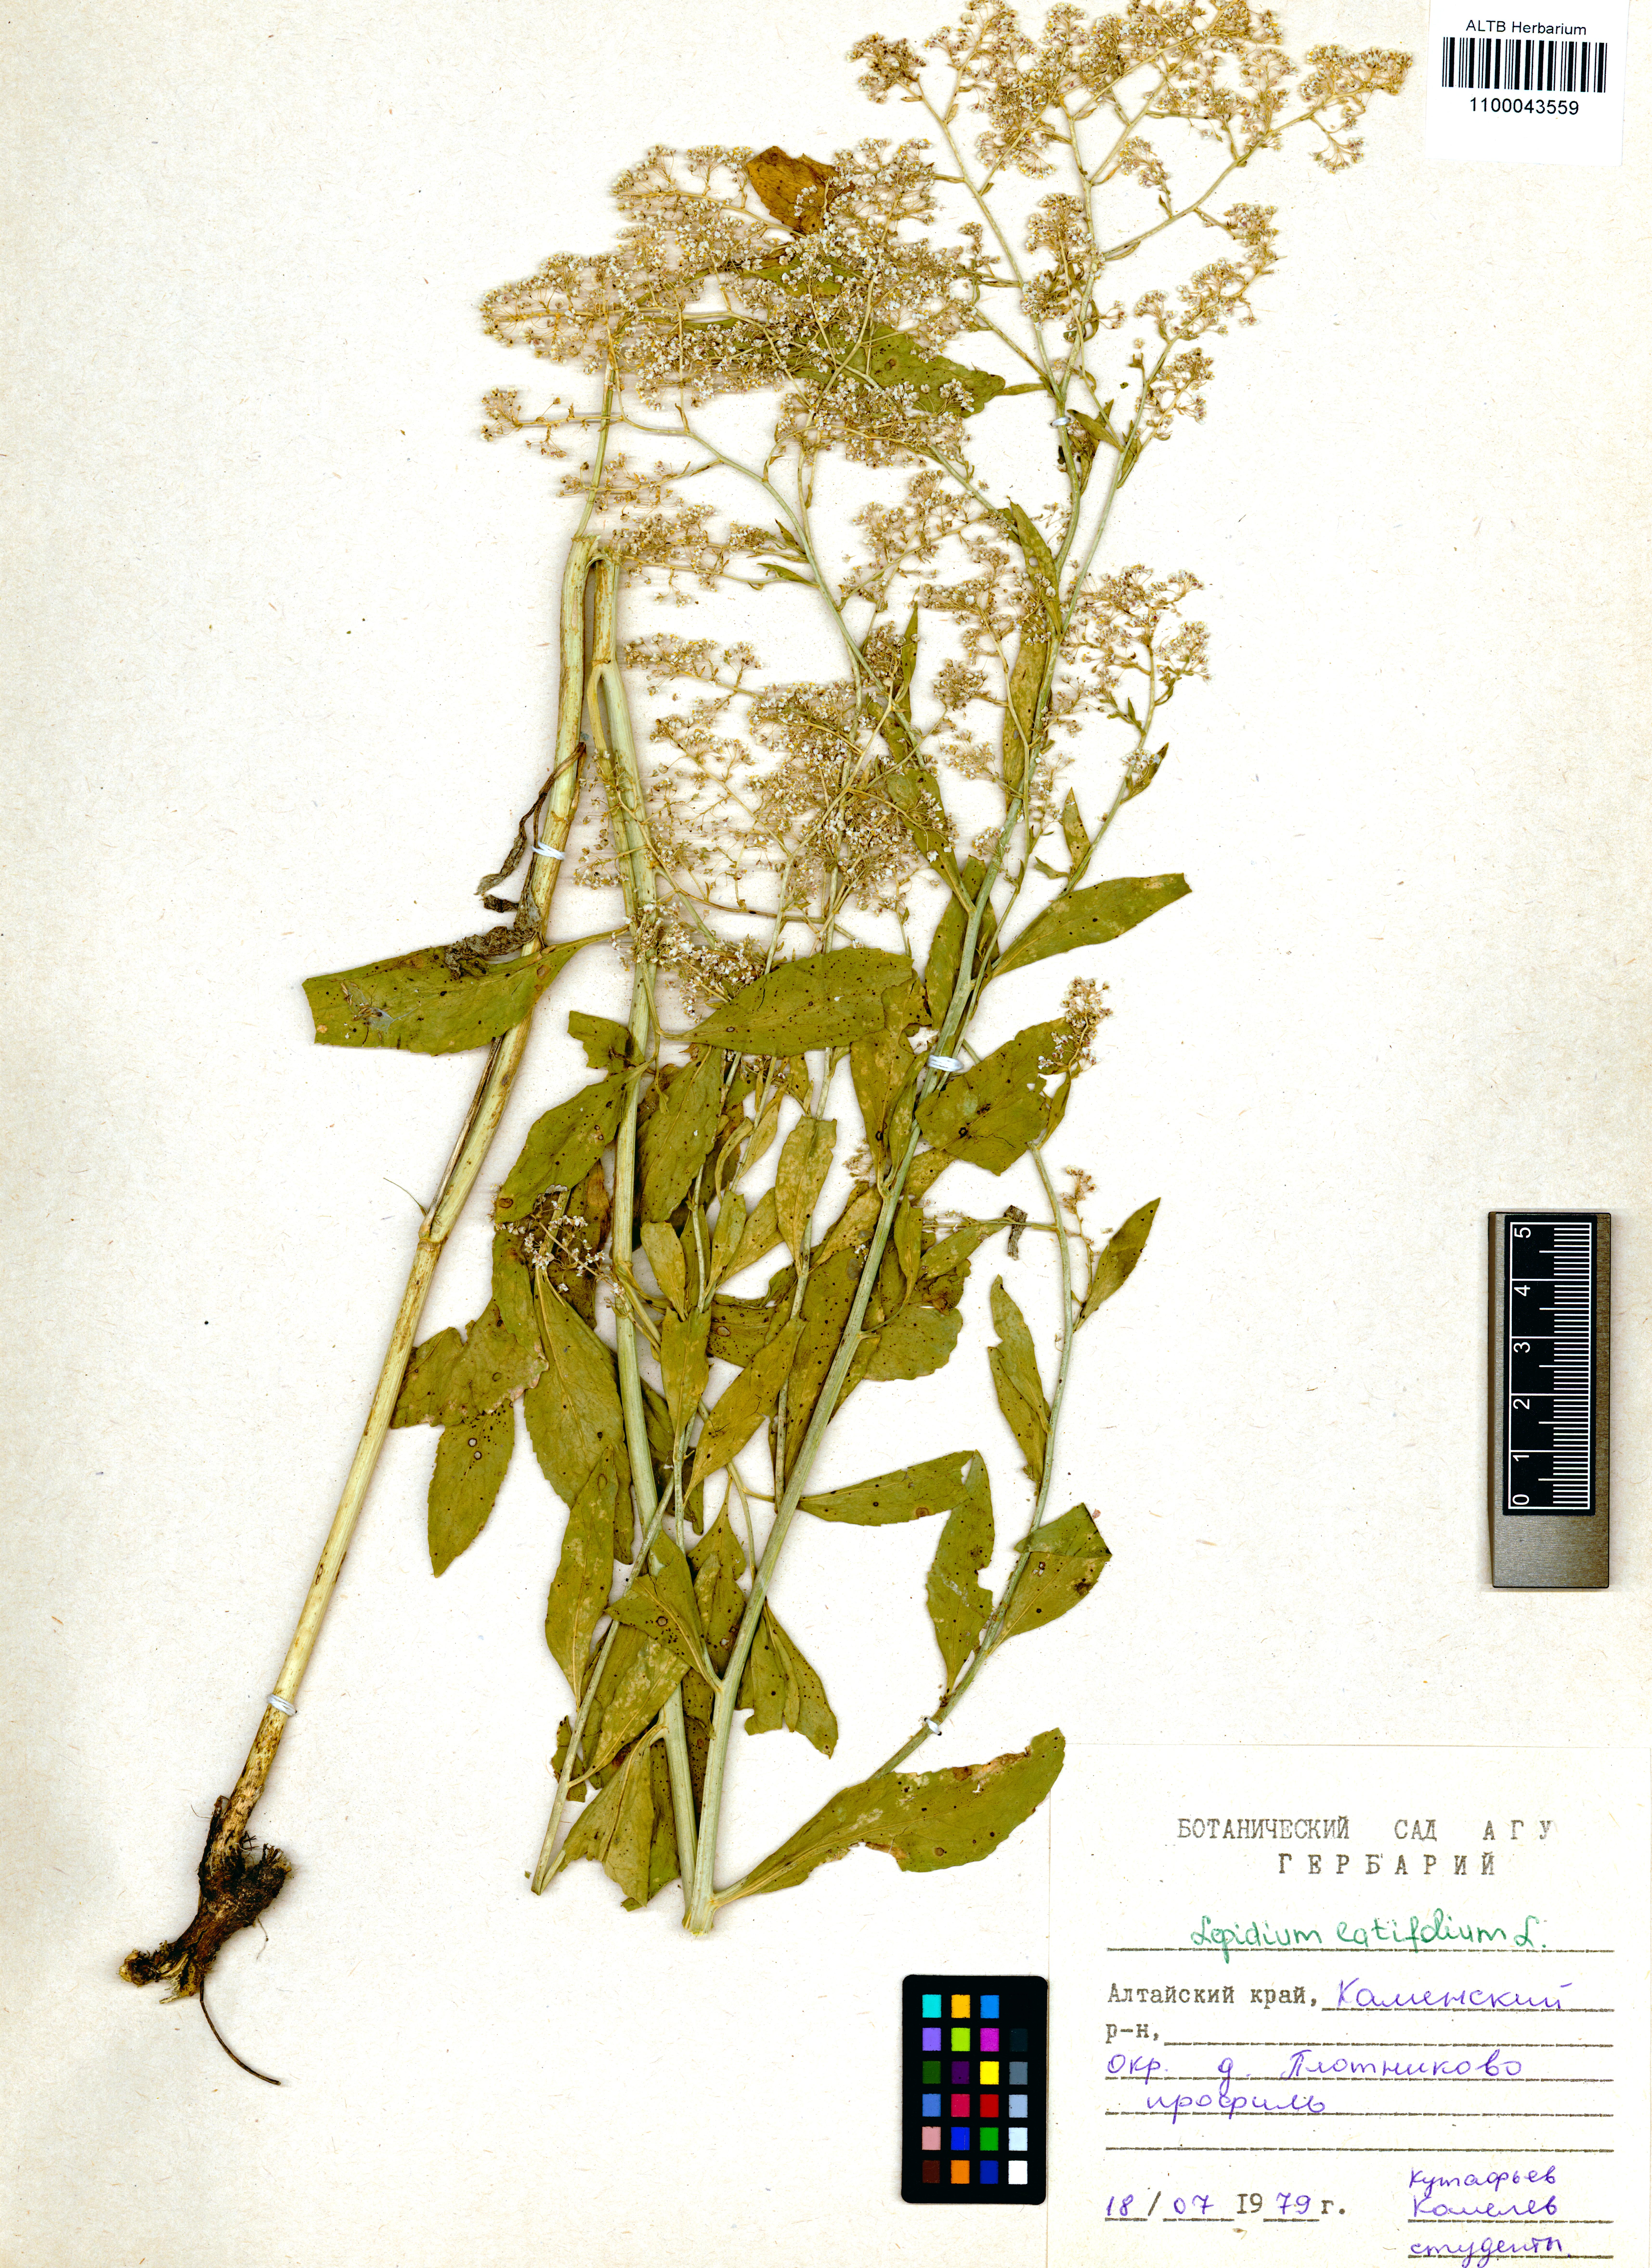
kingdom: Plantae
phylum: Tracheophyta
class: Magnoliopsida
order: Brassicales
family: Brassicaceae
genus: Lepidium
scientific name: Lepidium latifolium
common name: Dittander
